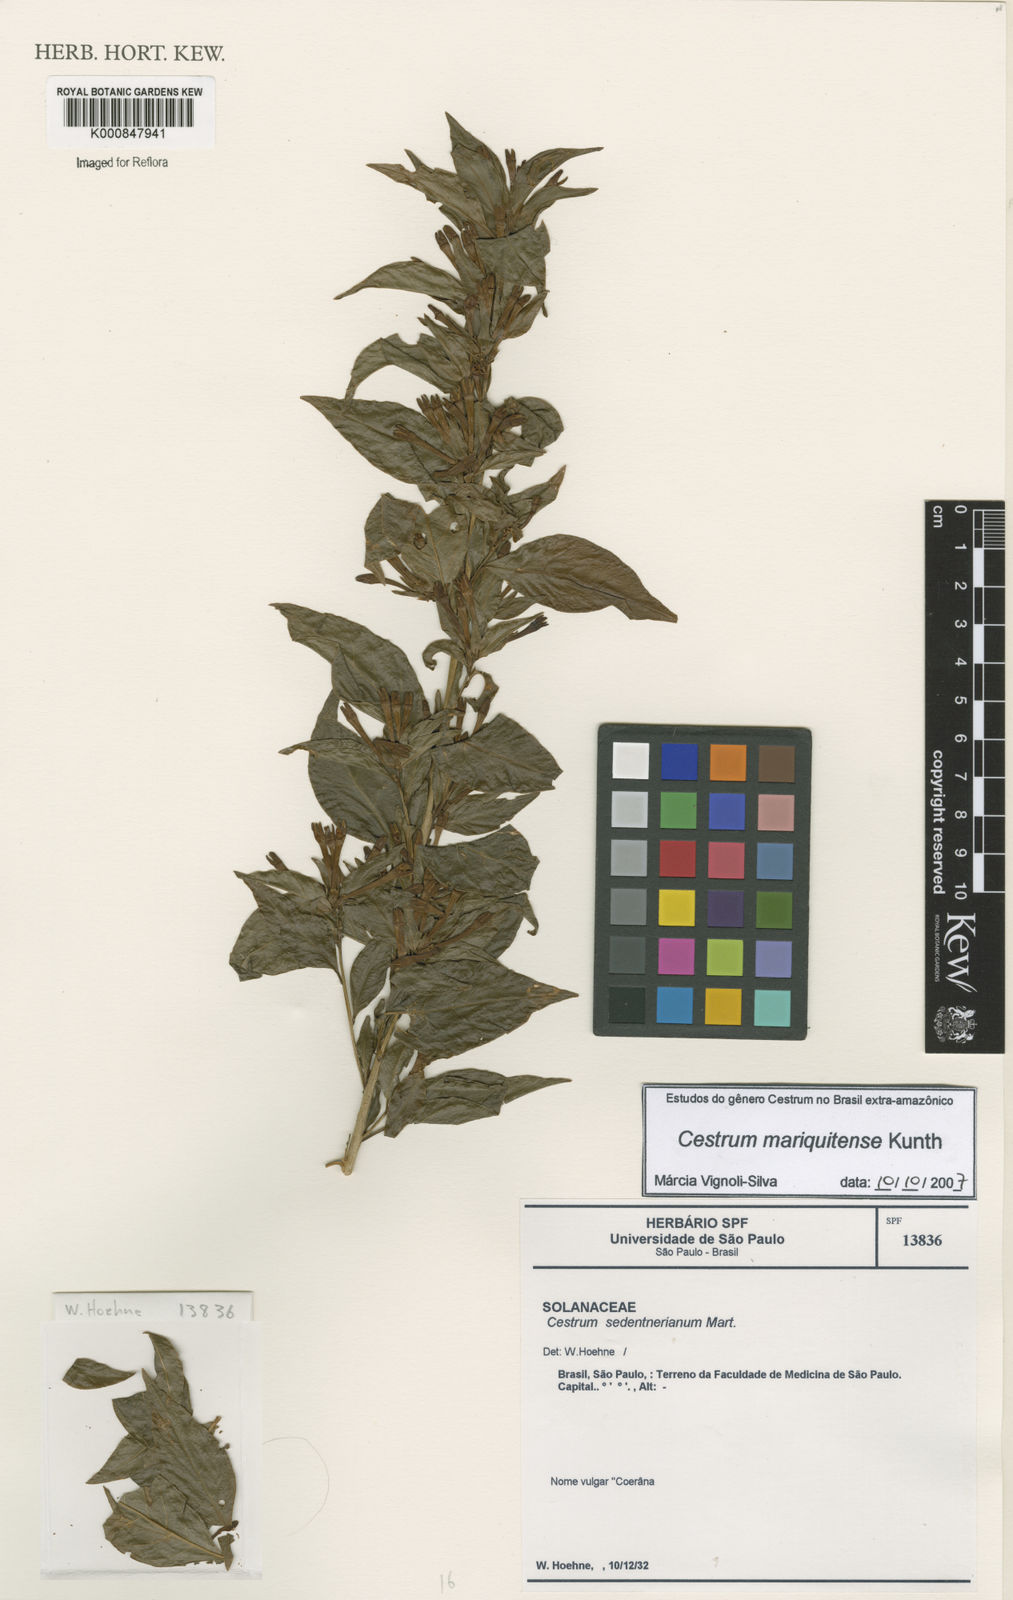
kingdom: Plantae
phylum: Tracheophyta
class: Magnoliopsida
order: Solanales
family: Solanaceae
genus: Cestrum
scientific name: Cestrum mariquitense
